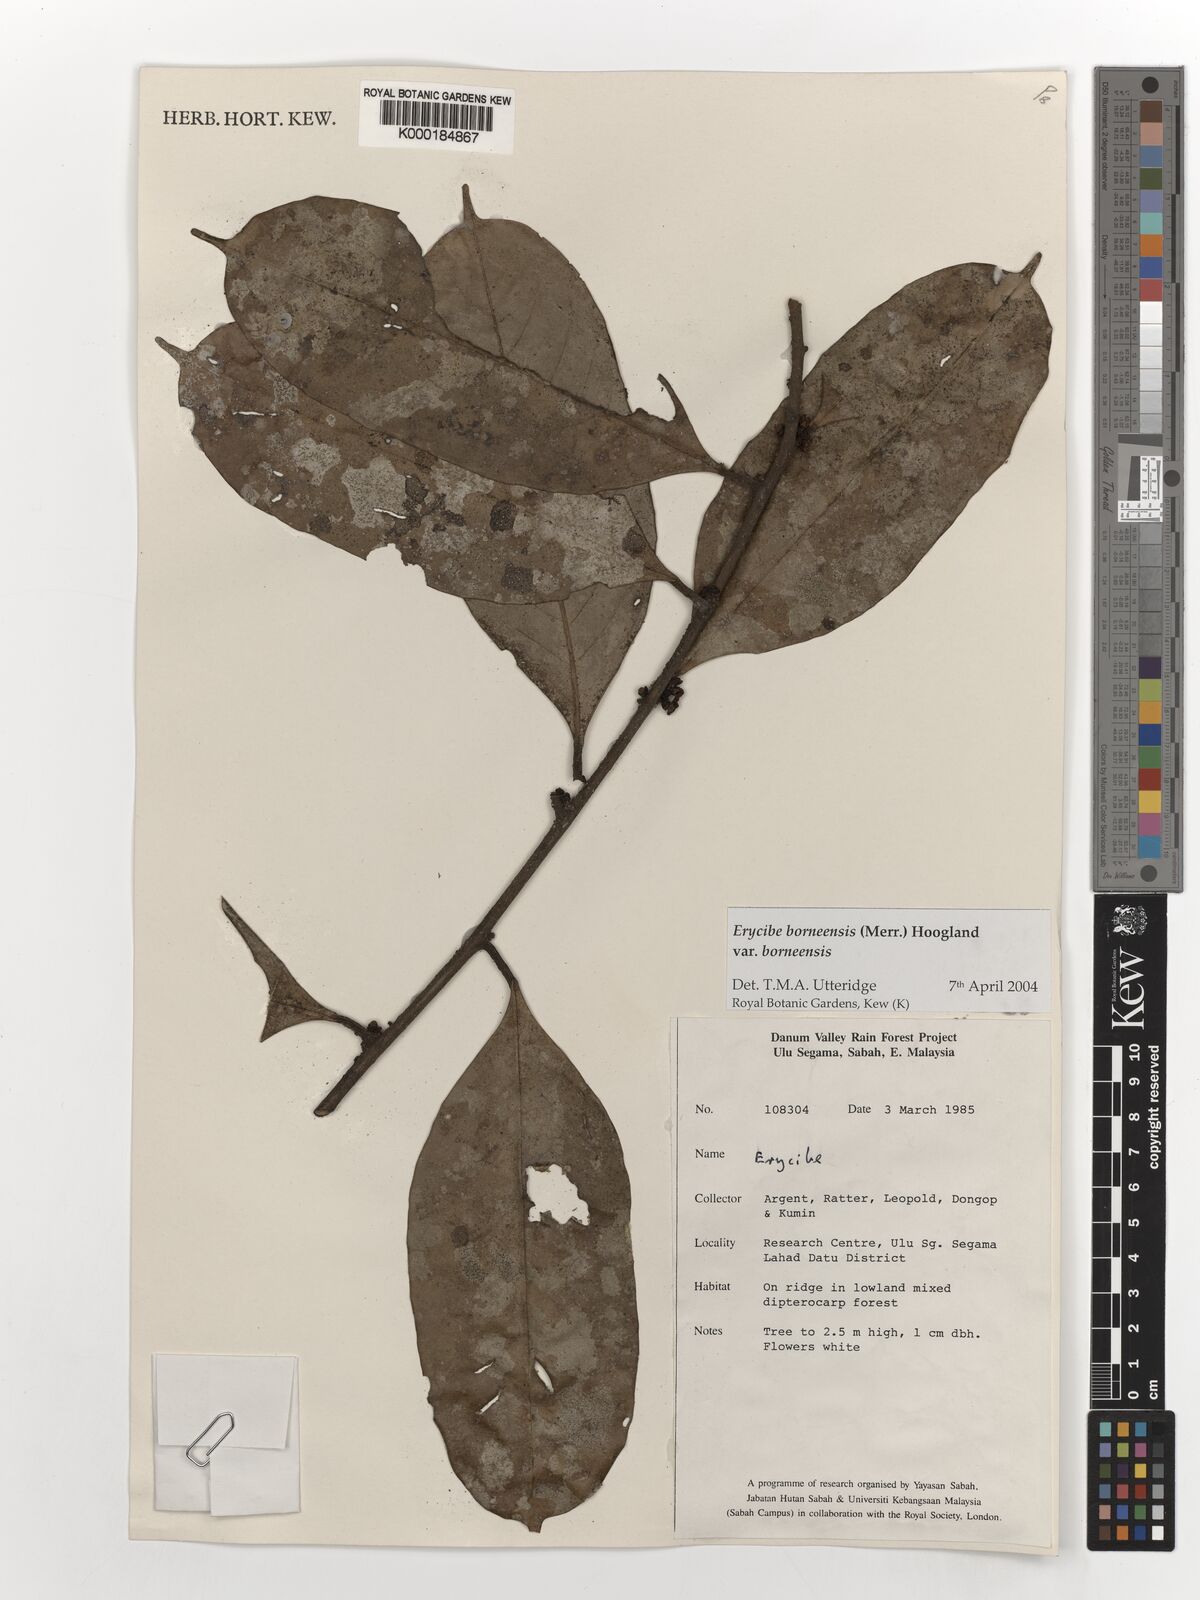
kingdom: Plantae
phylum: Tracheophyta
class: Magnoliopsida
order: Solanales
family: Convolvulaceae
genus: Erycibe
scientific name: Erycibe borneensis
